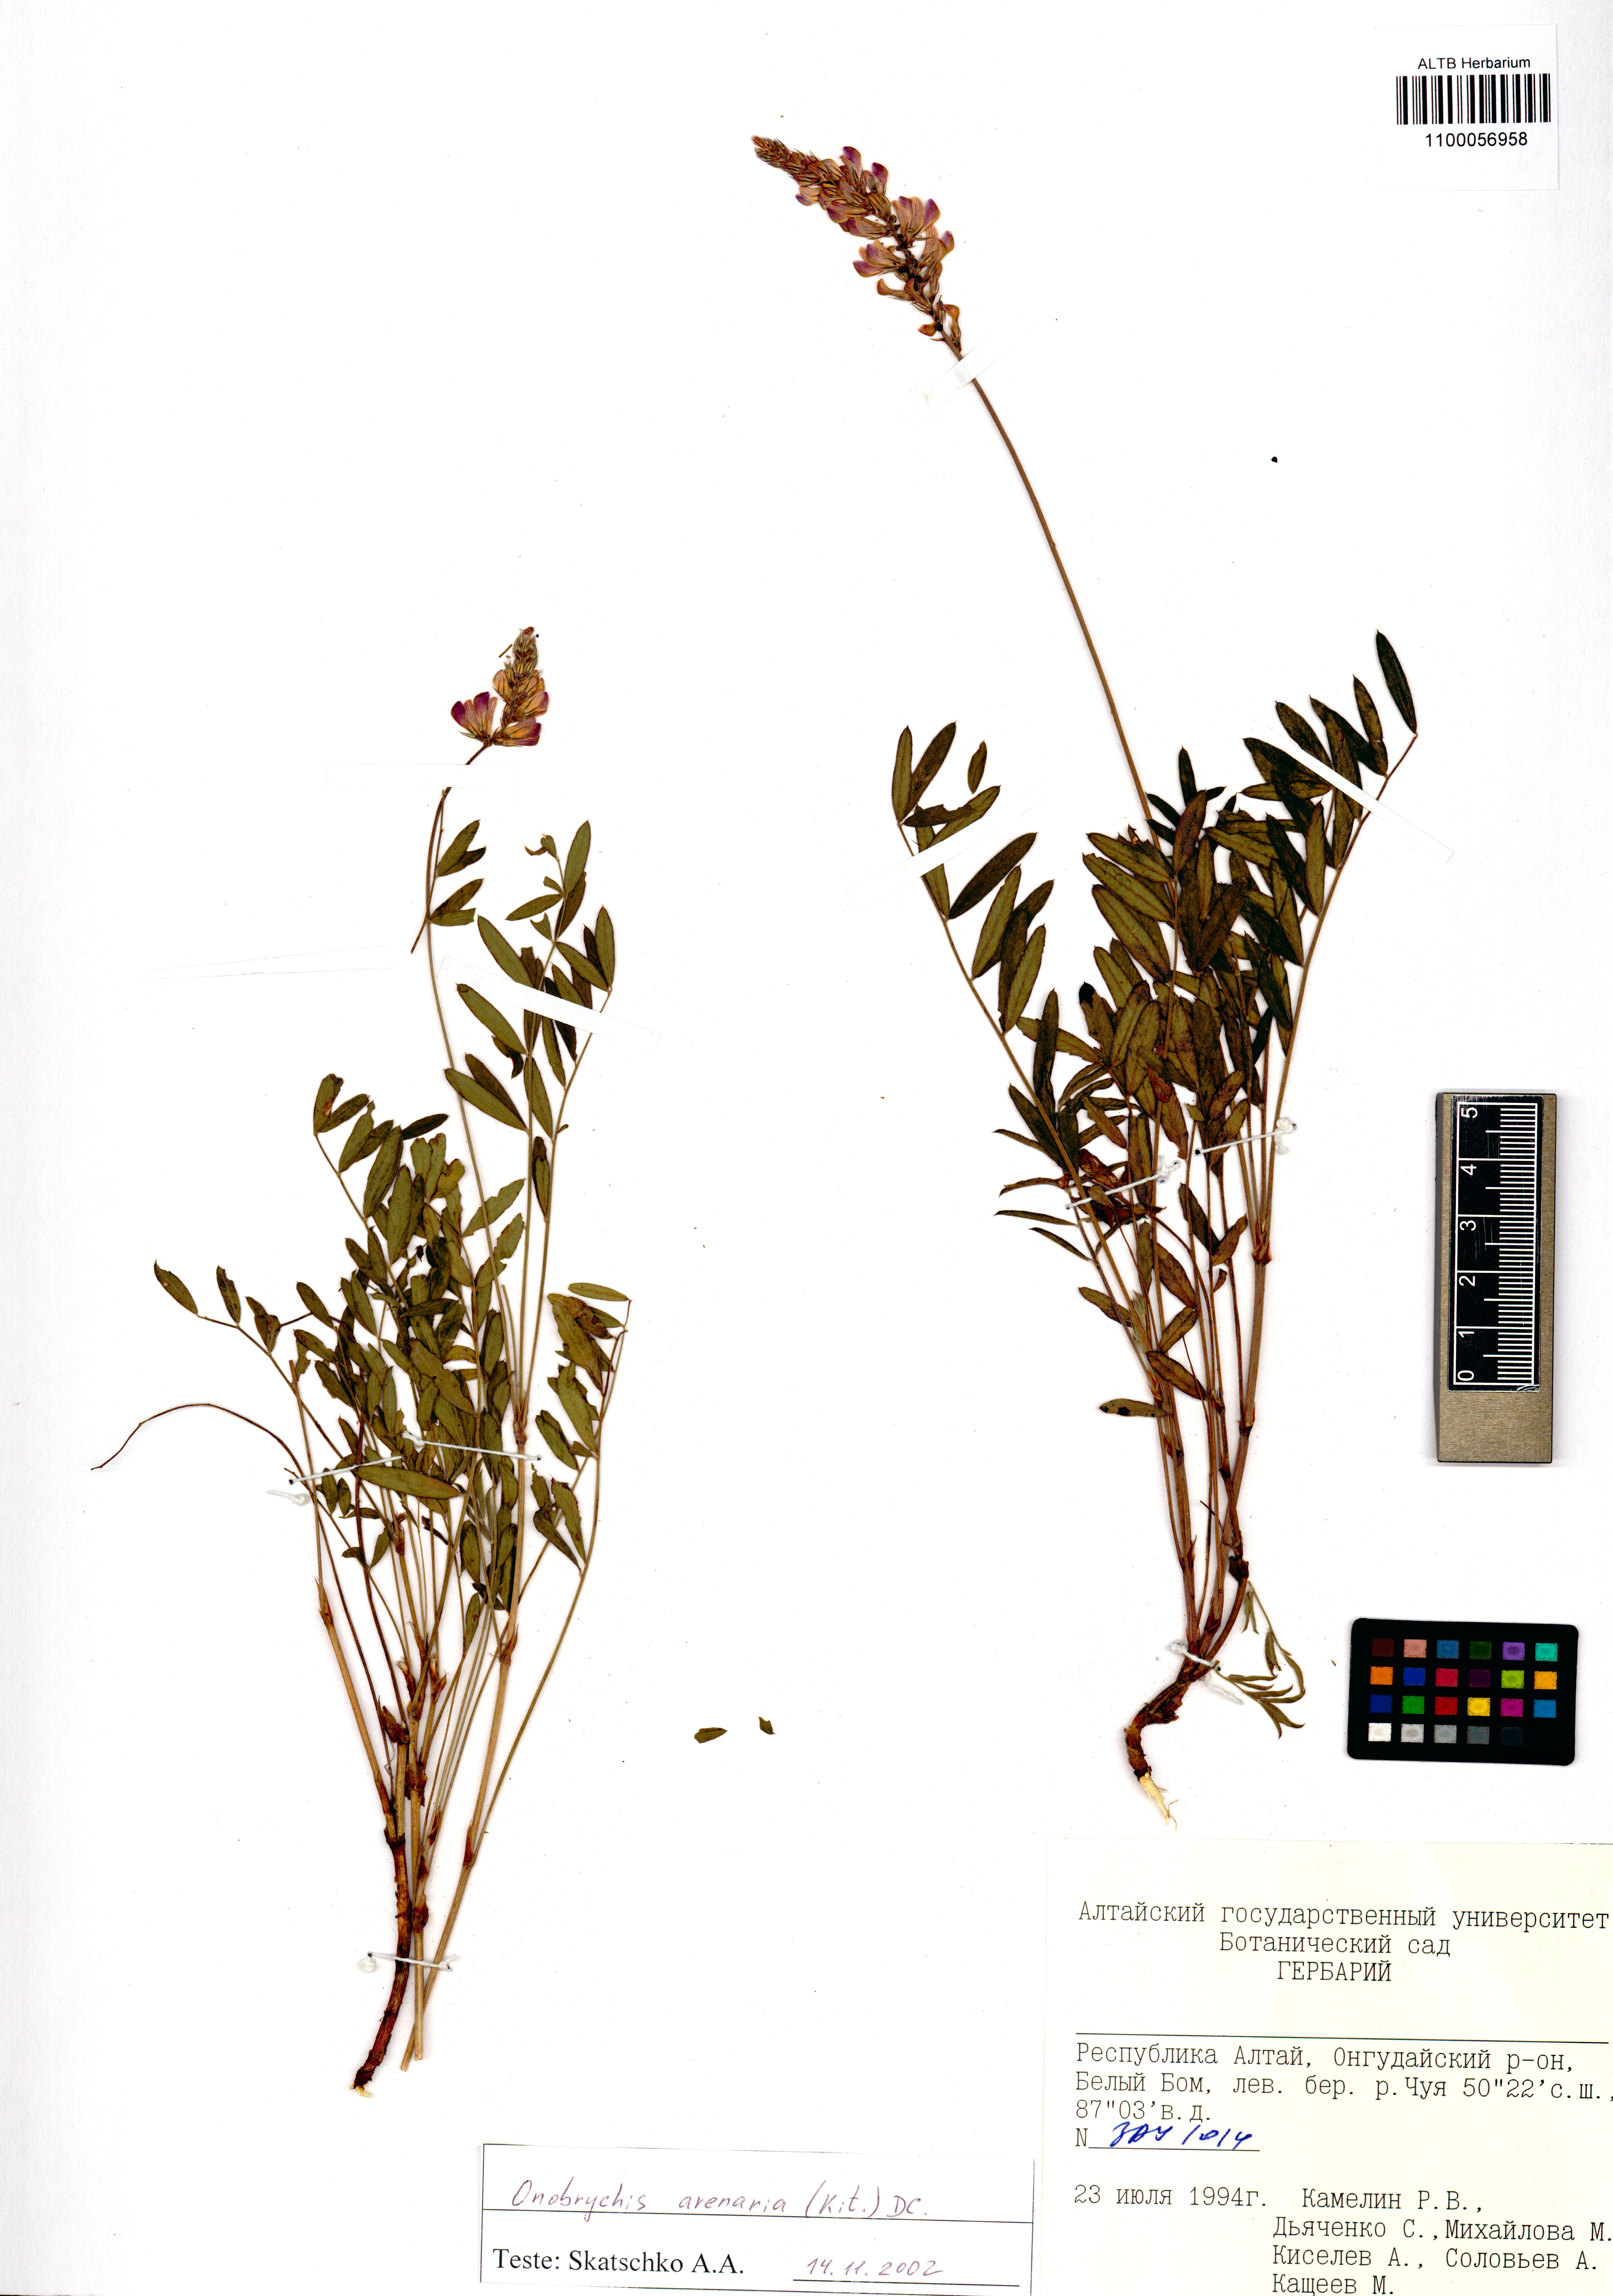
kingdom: Plantae
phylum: Tracheophyta
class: Magnoliopsida
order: Fabales
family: Fabaceae
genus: Onobrychis
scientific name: Onobrychis arenaria
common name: Sand esparcet
